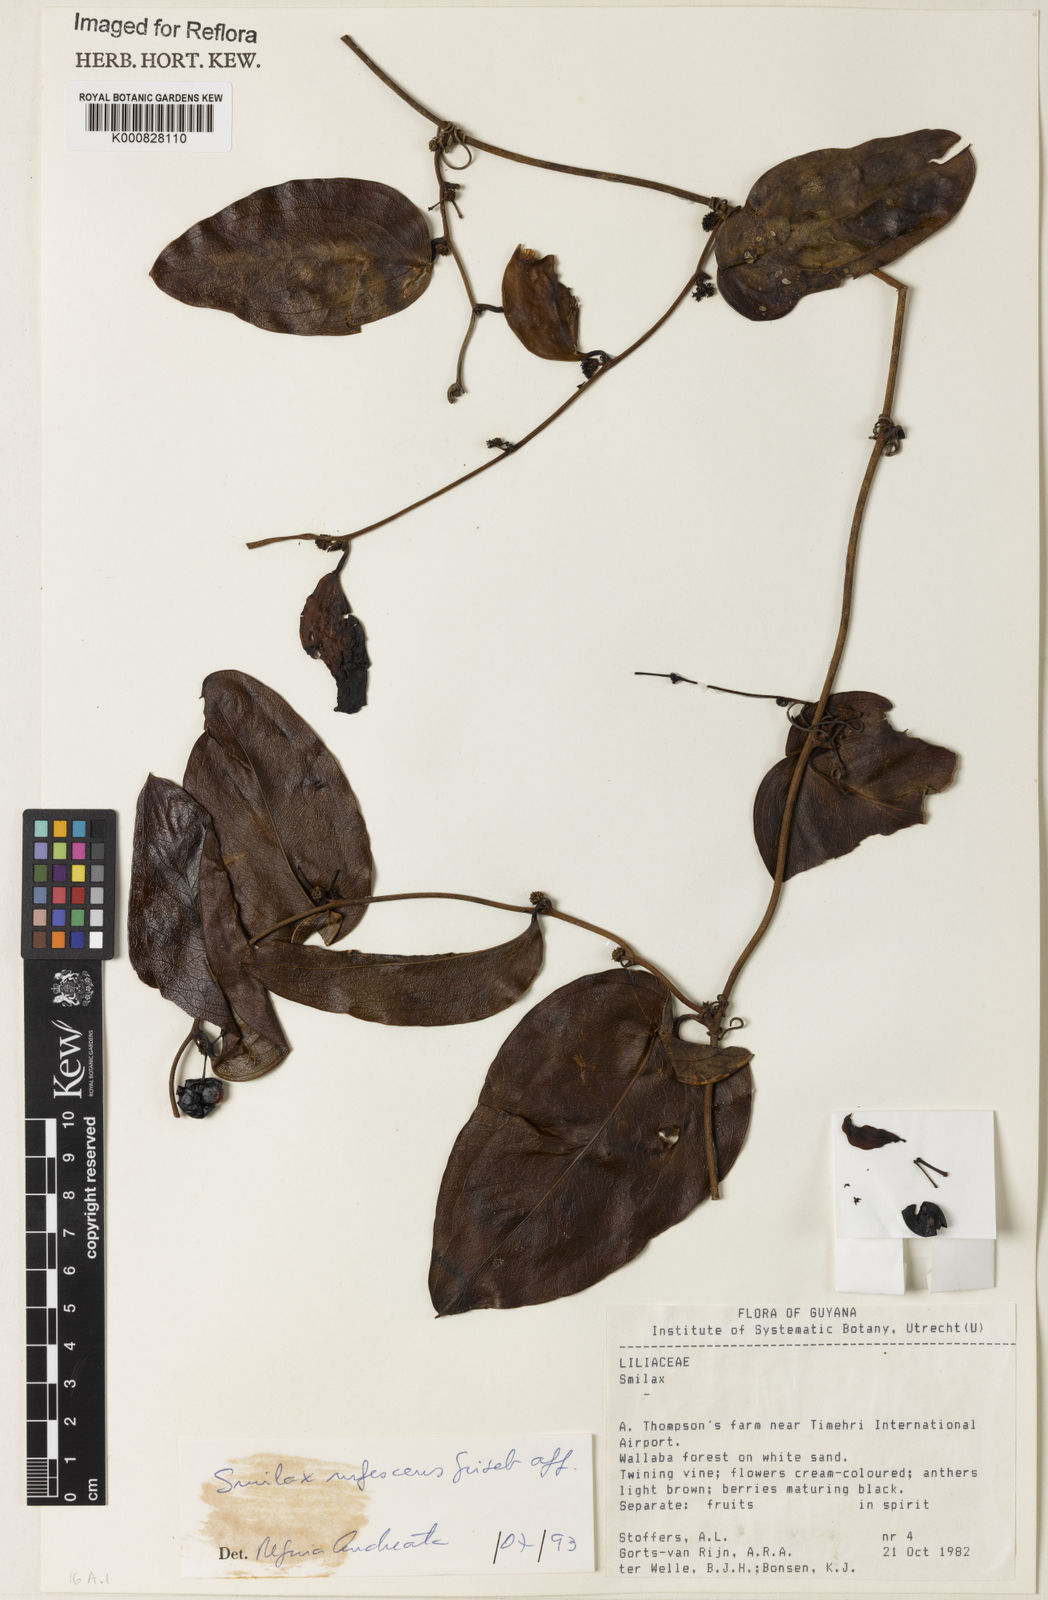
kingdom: Plantae
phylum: Tracheophyta
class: Liliopsida
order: Liliales
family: Smilacaceae
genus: Smilax
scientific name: Smilax rufescens
